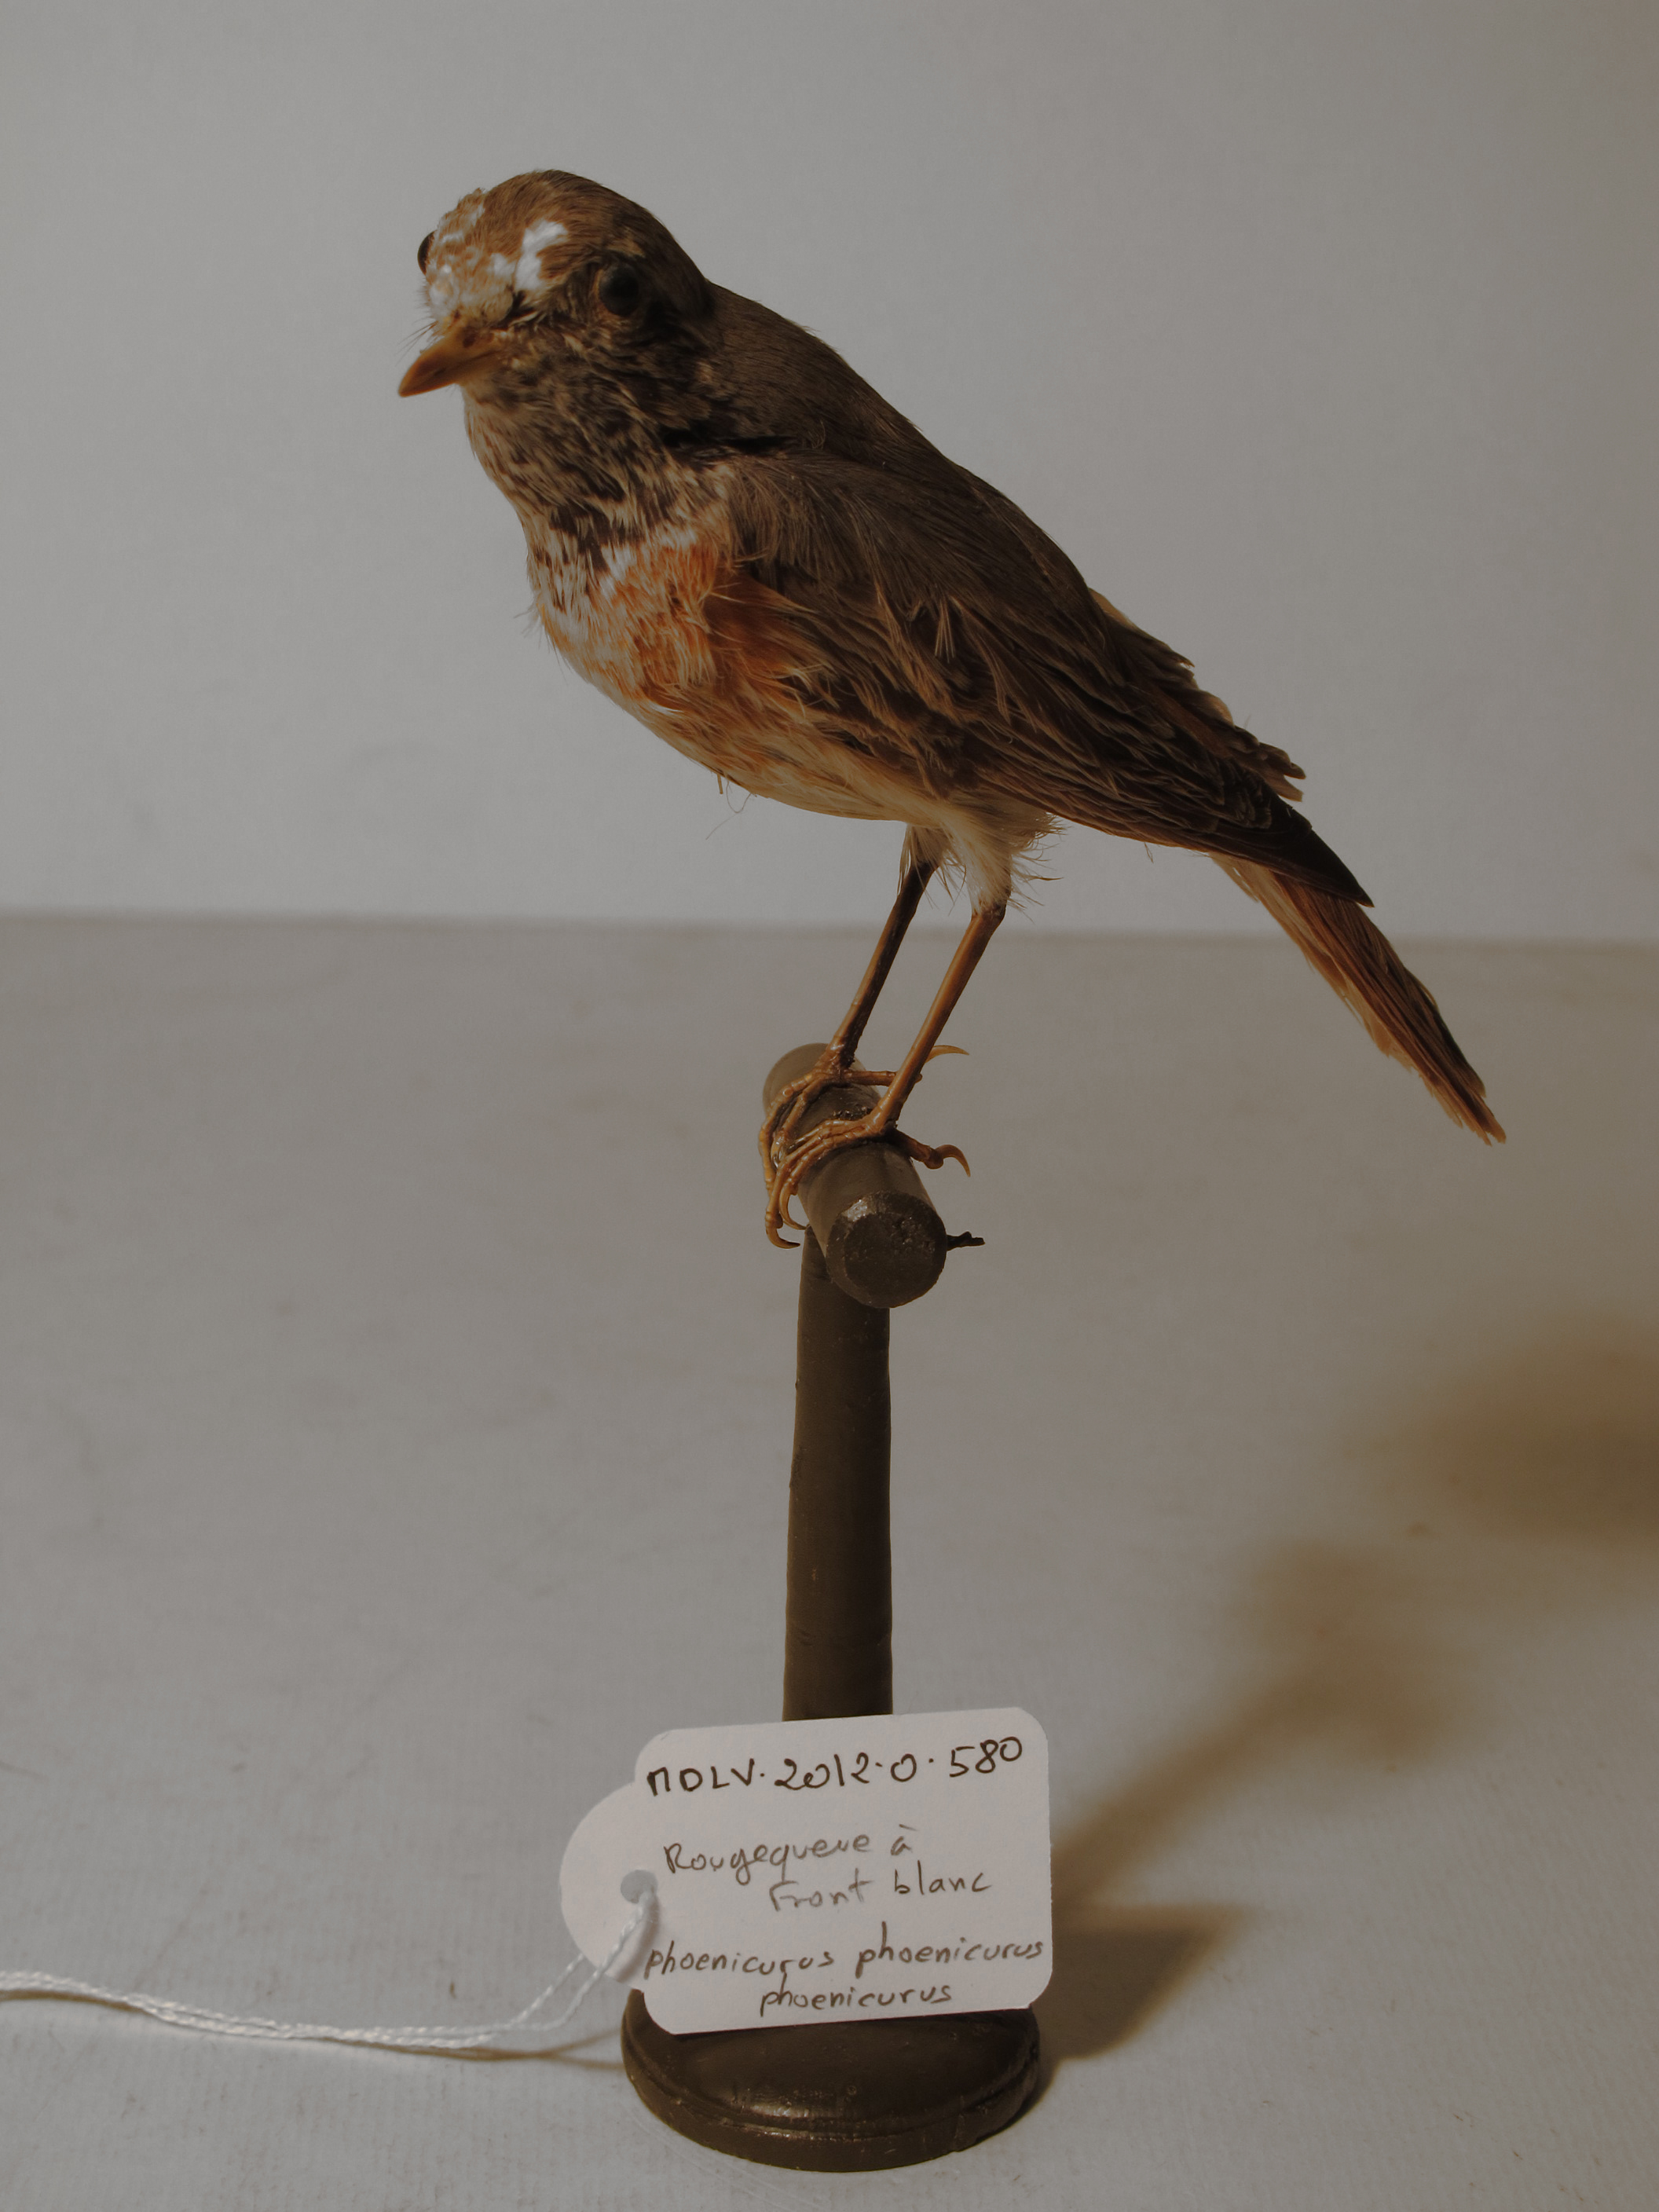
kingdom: Animalia
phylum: Chordata
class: Aves
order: Passeriformes
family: Muscicapidae
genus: Phoenicurus
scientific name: Phoenicurus phoenicurus
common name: Common Redstart
